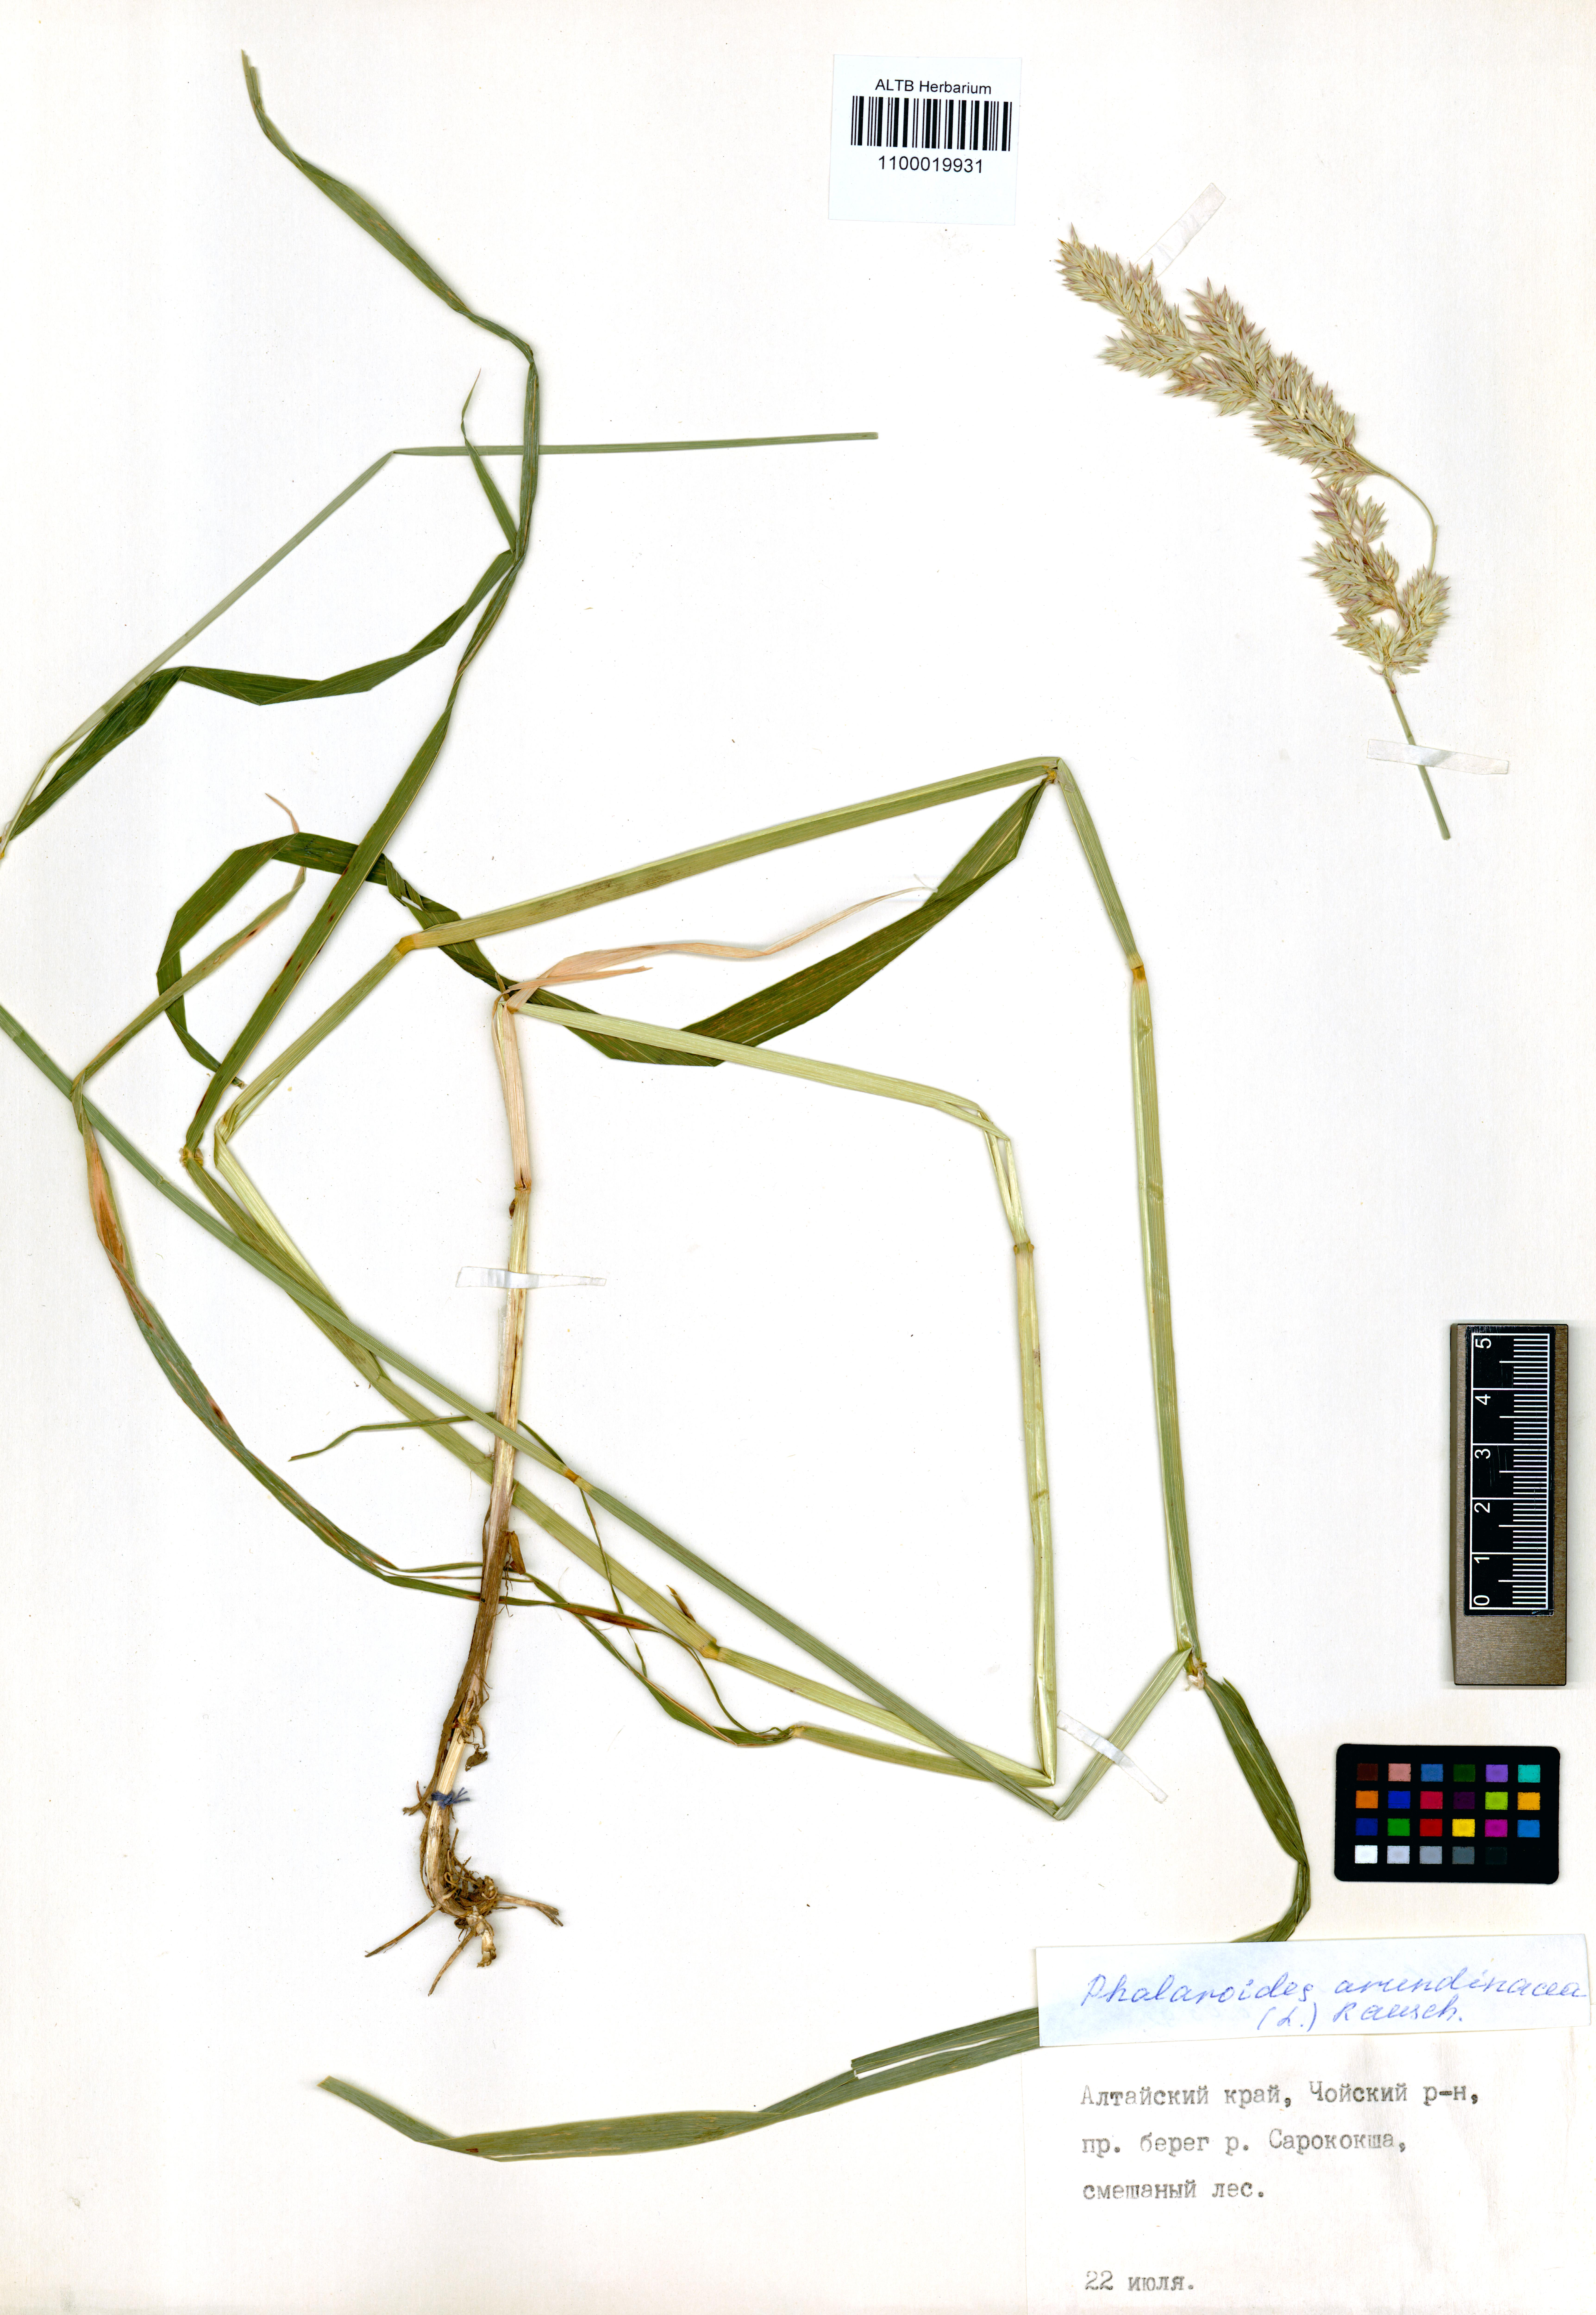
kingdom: Plantae
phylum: Tracheophyta
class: Liliopsida
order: Poales
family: Poaceae
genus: Phalaris
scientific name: Phalaris arundinacea
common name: Reed canary-grass
